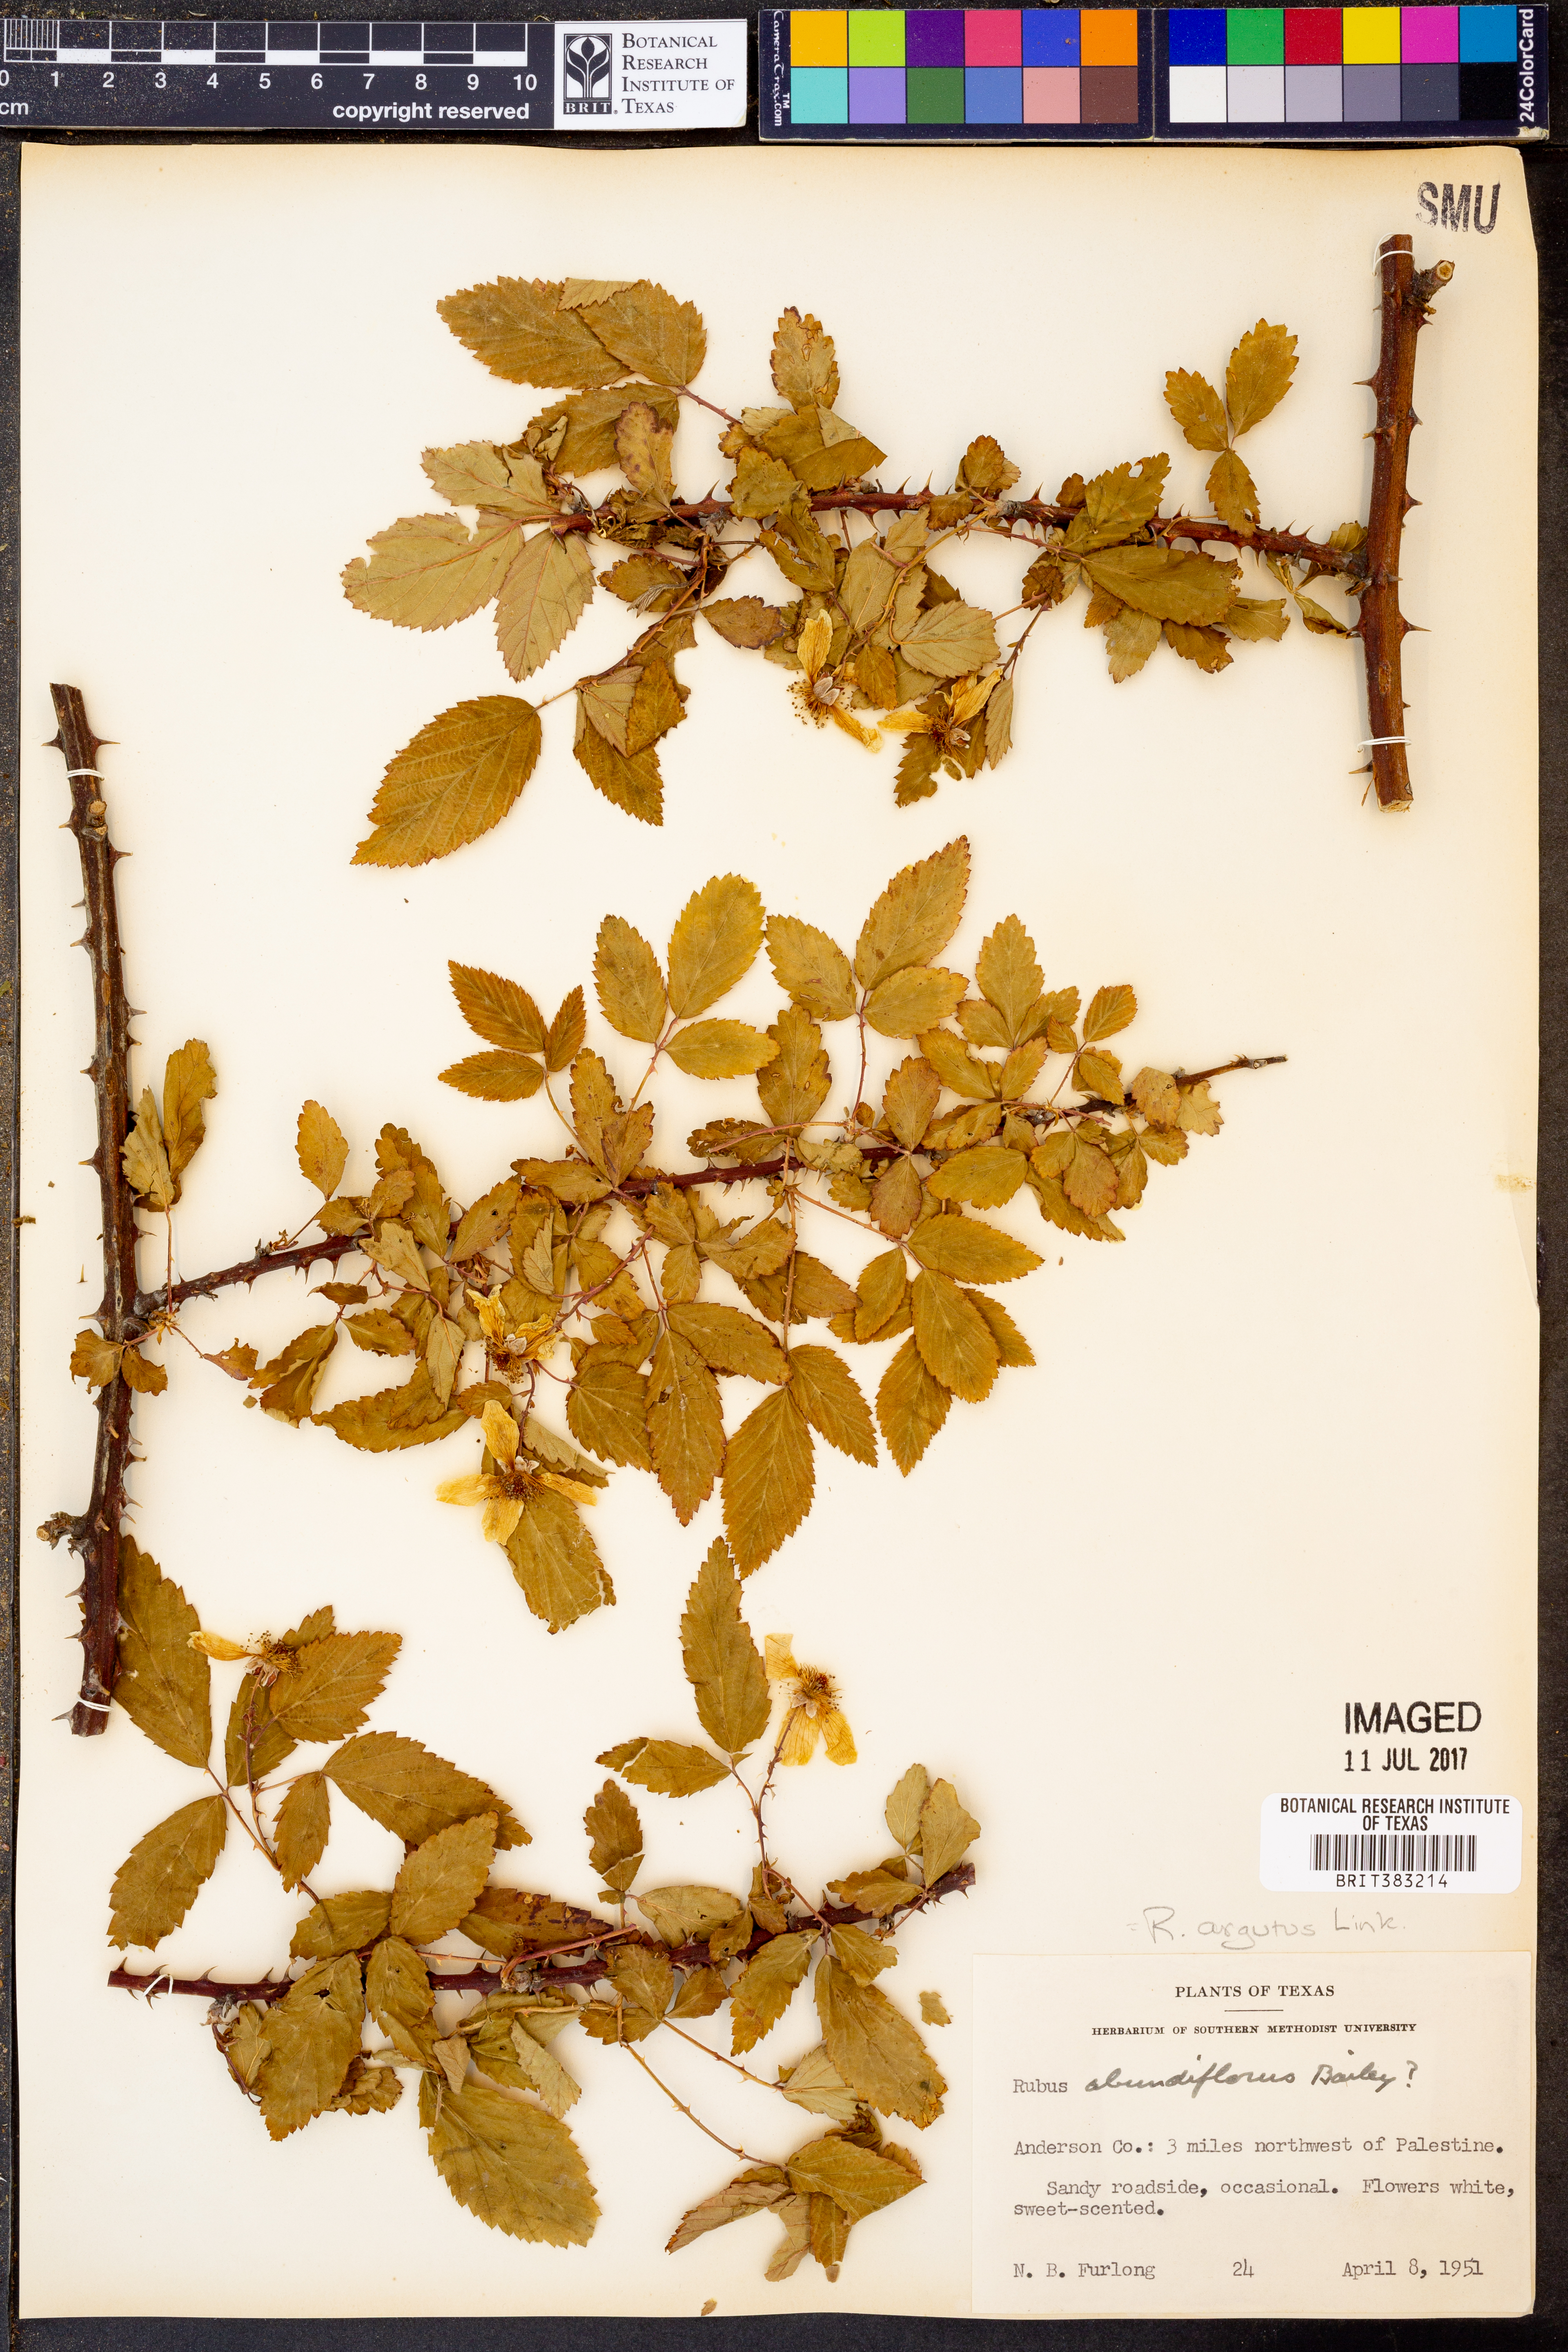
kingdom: Plantae
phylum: Tracheophyta
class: Magnoliopsida
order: Rosales
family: Rosaceae
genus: Rubus
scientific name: Rubus argutus
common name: Sawtooth blackberry
